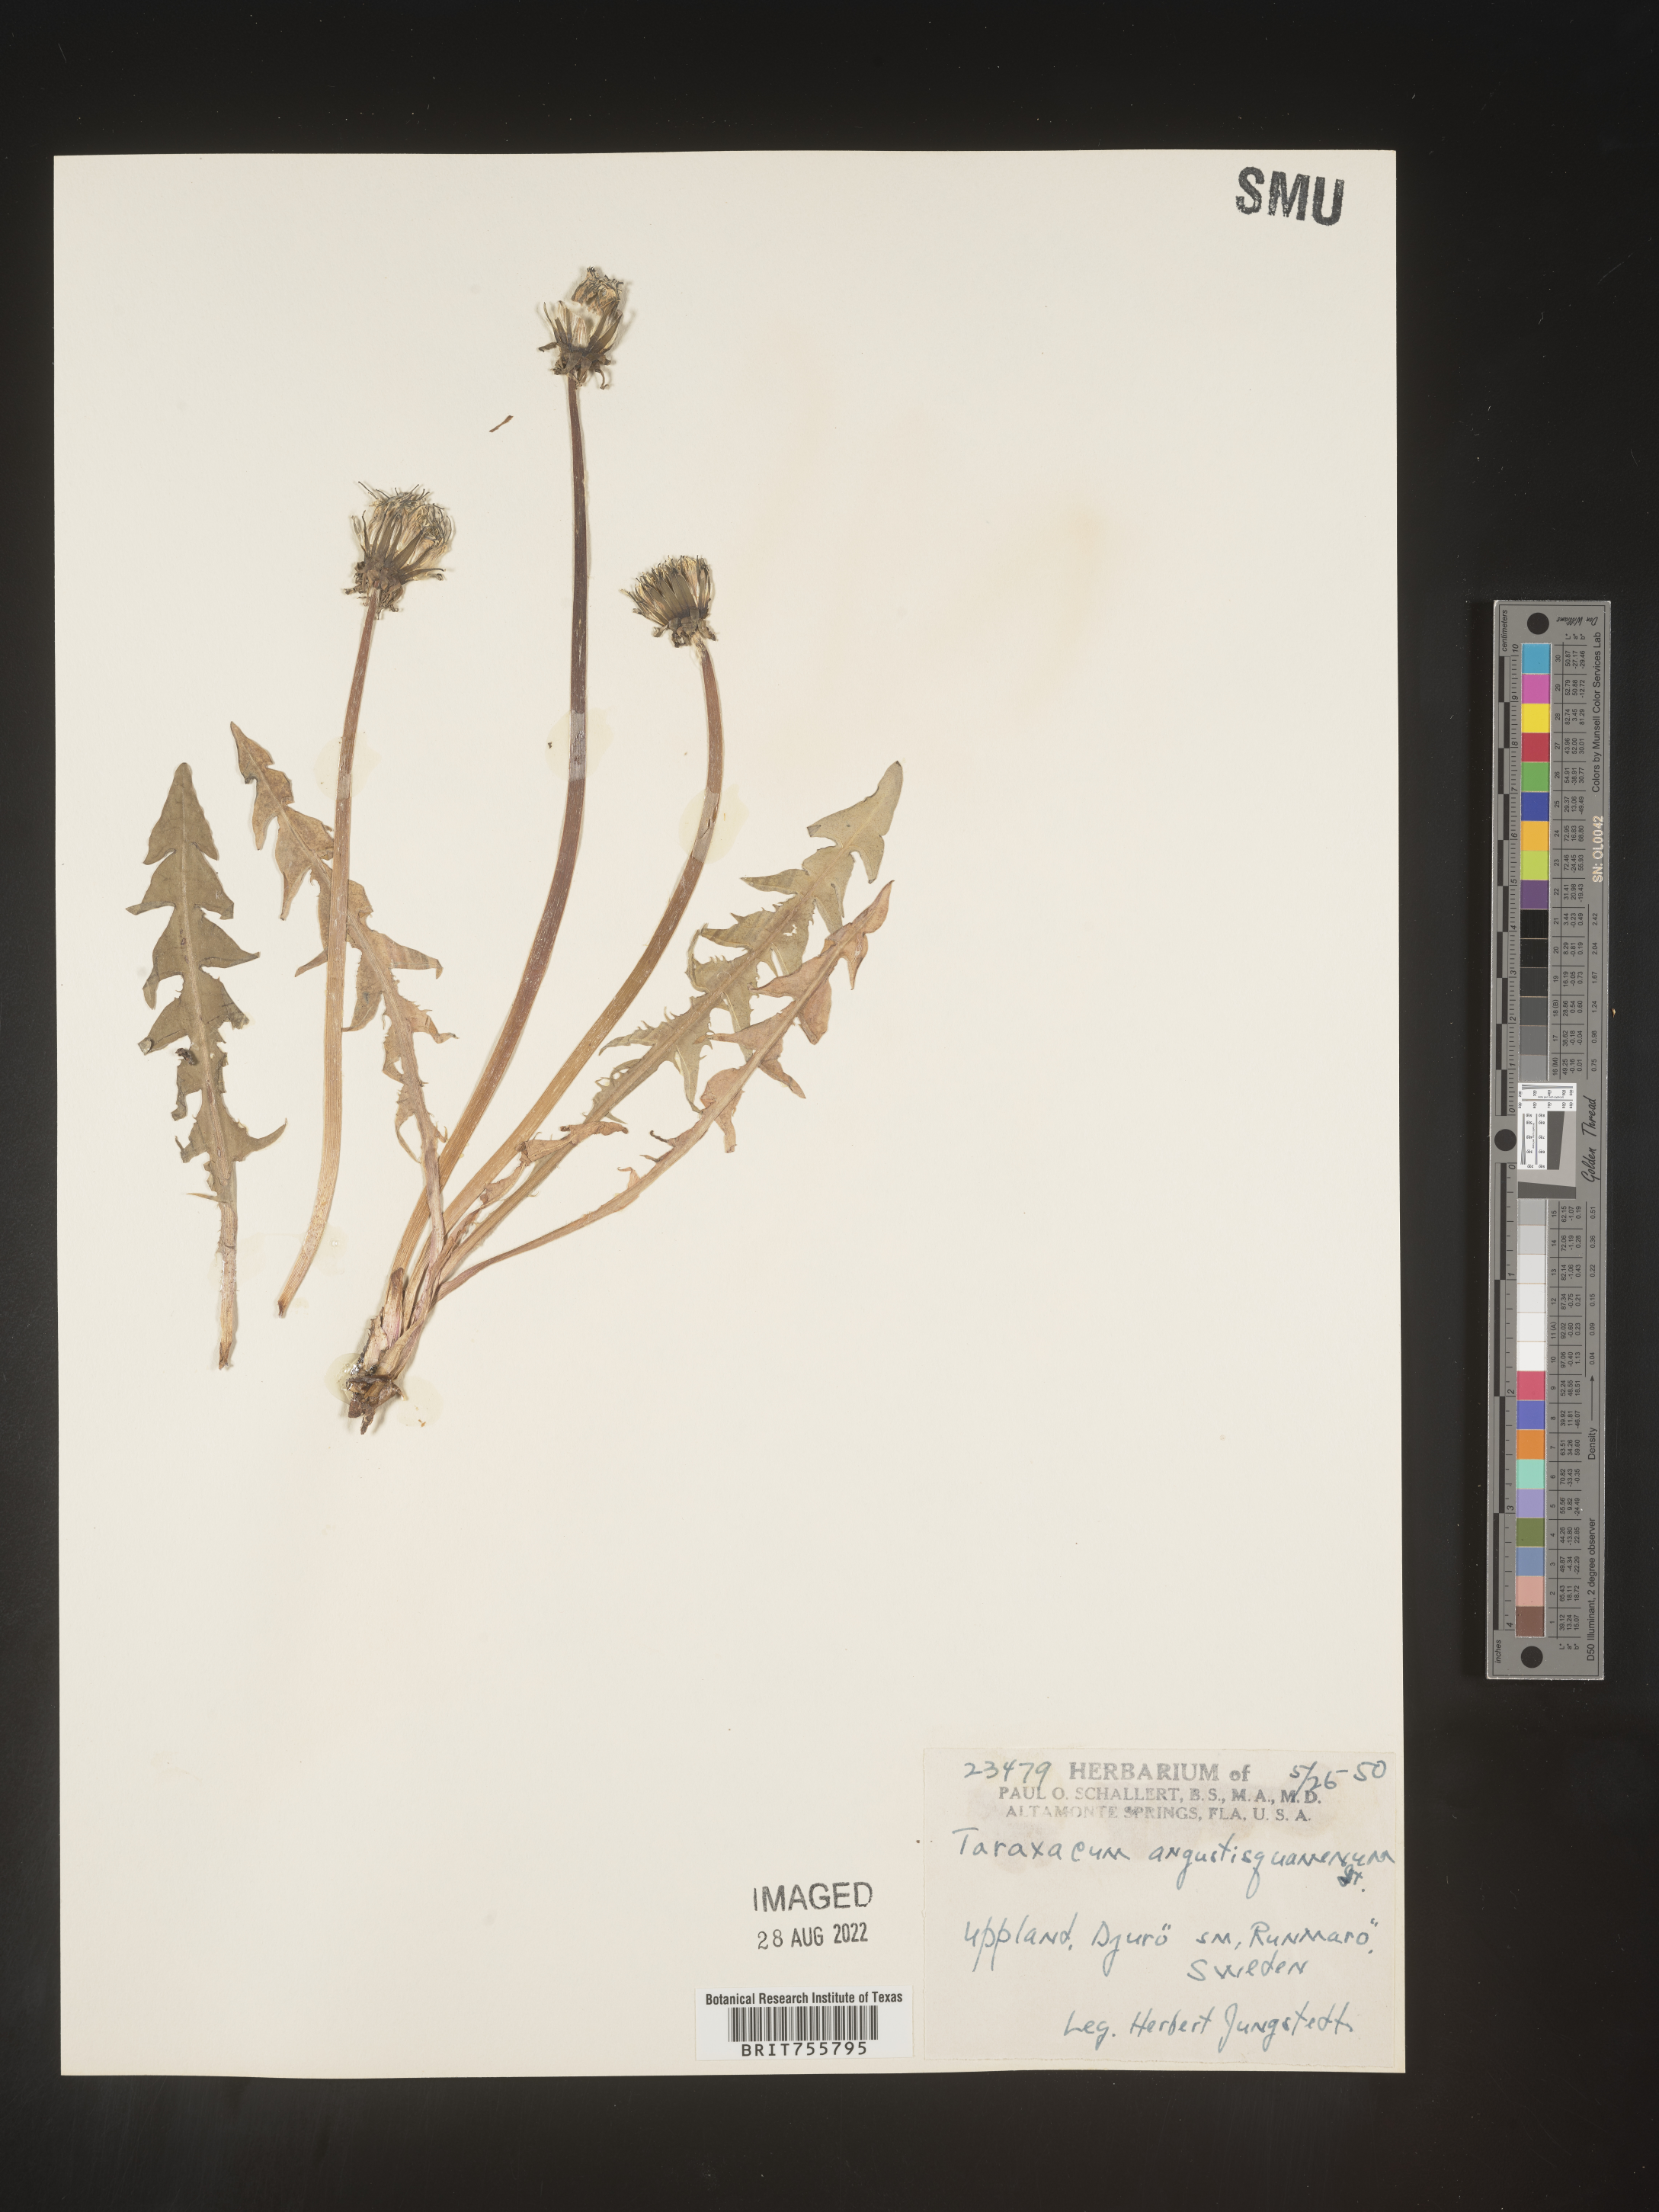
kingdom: Plantae
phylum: Tracheophyta
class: Magnoliopsida
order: Asterales
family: Asteraceae
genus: Taraxacum
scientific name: Taraxacum
